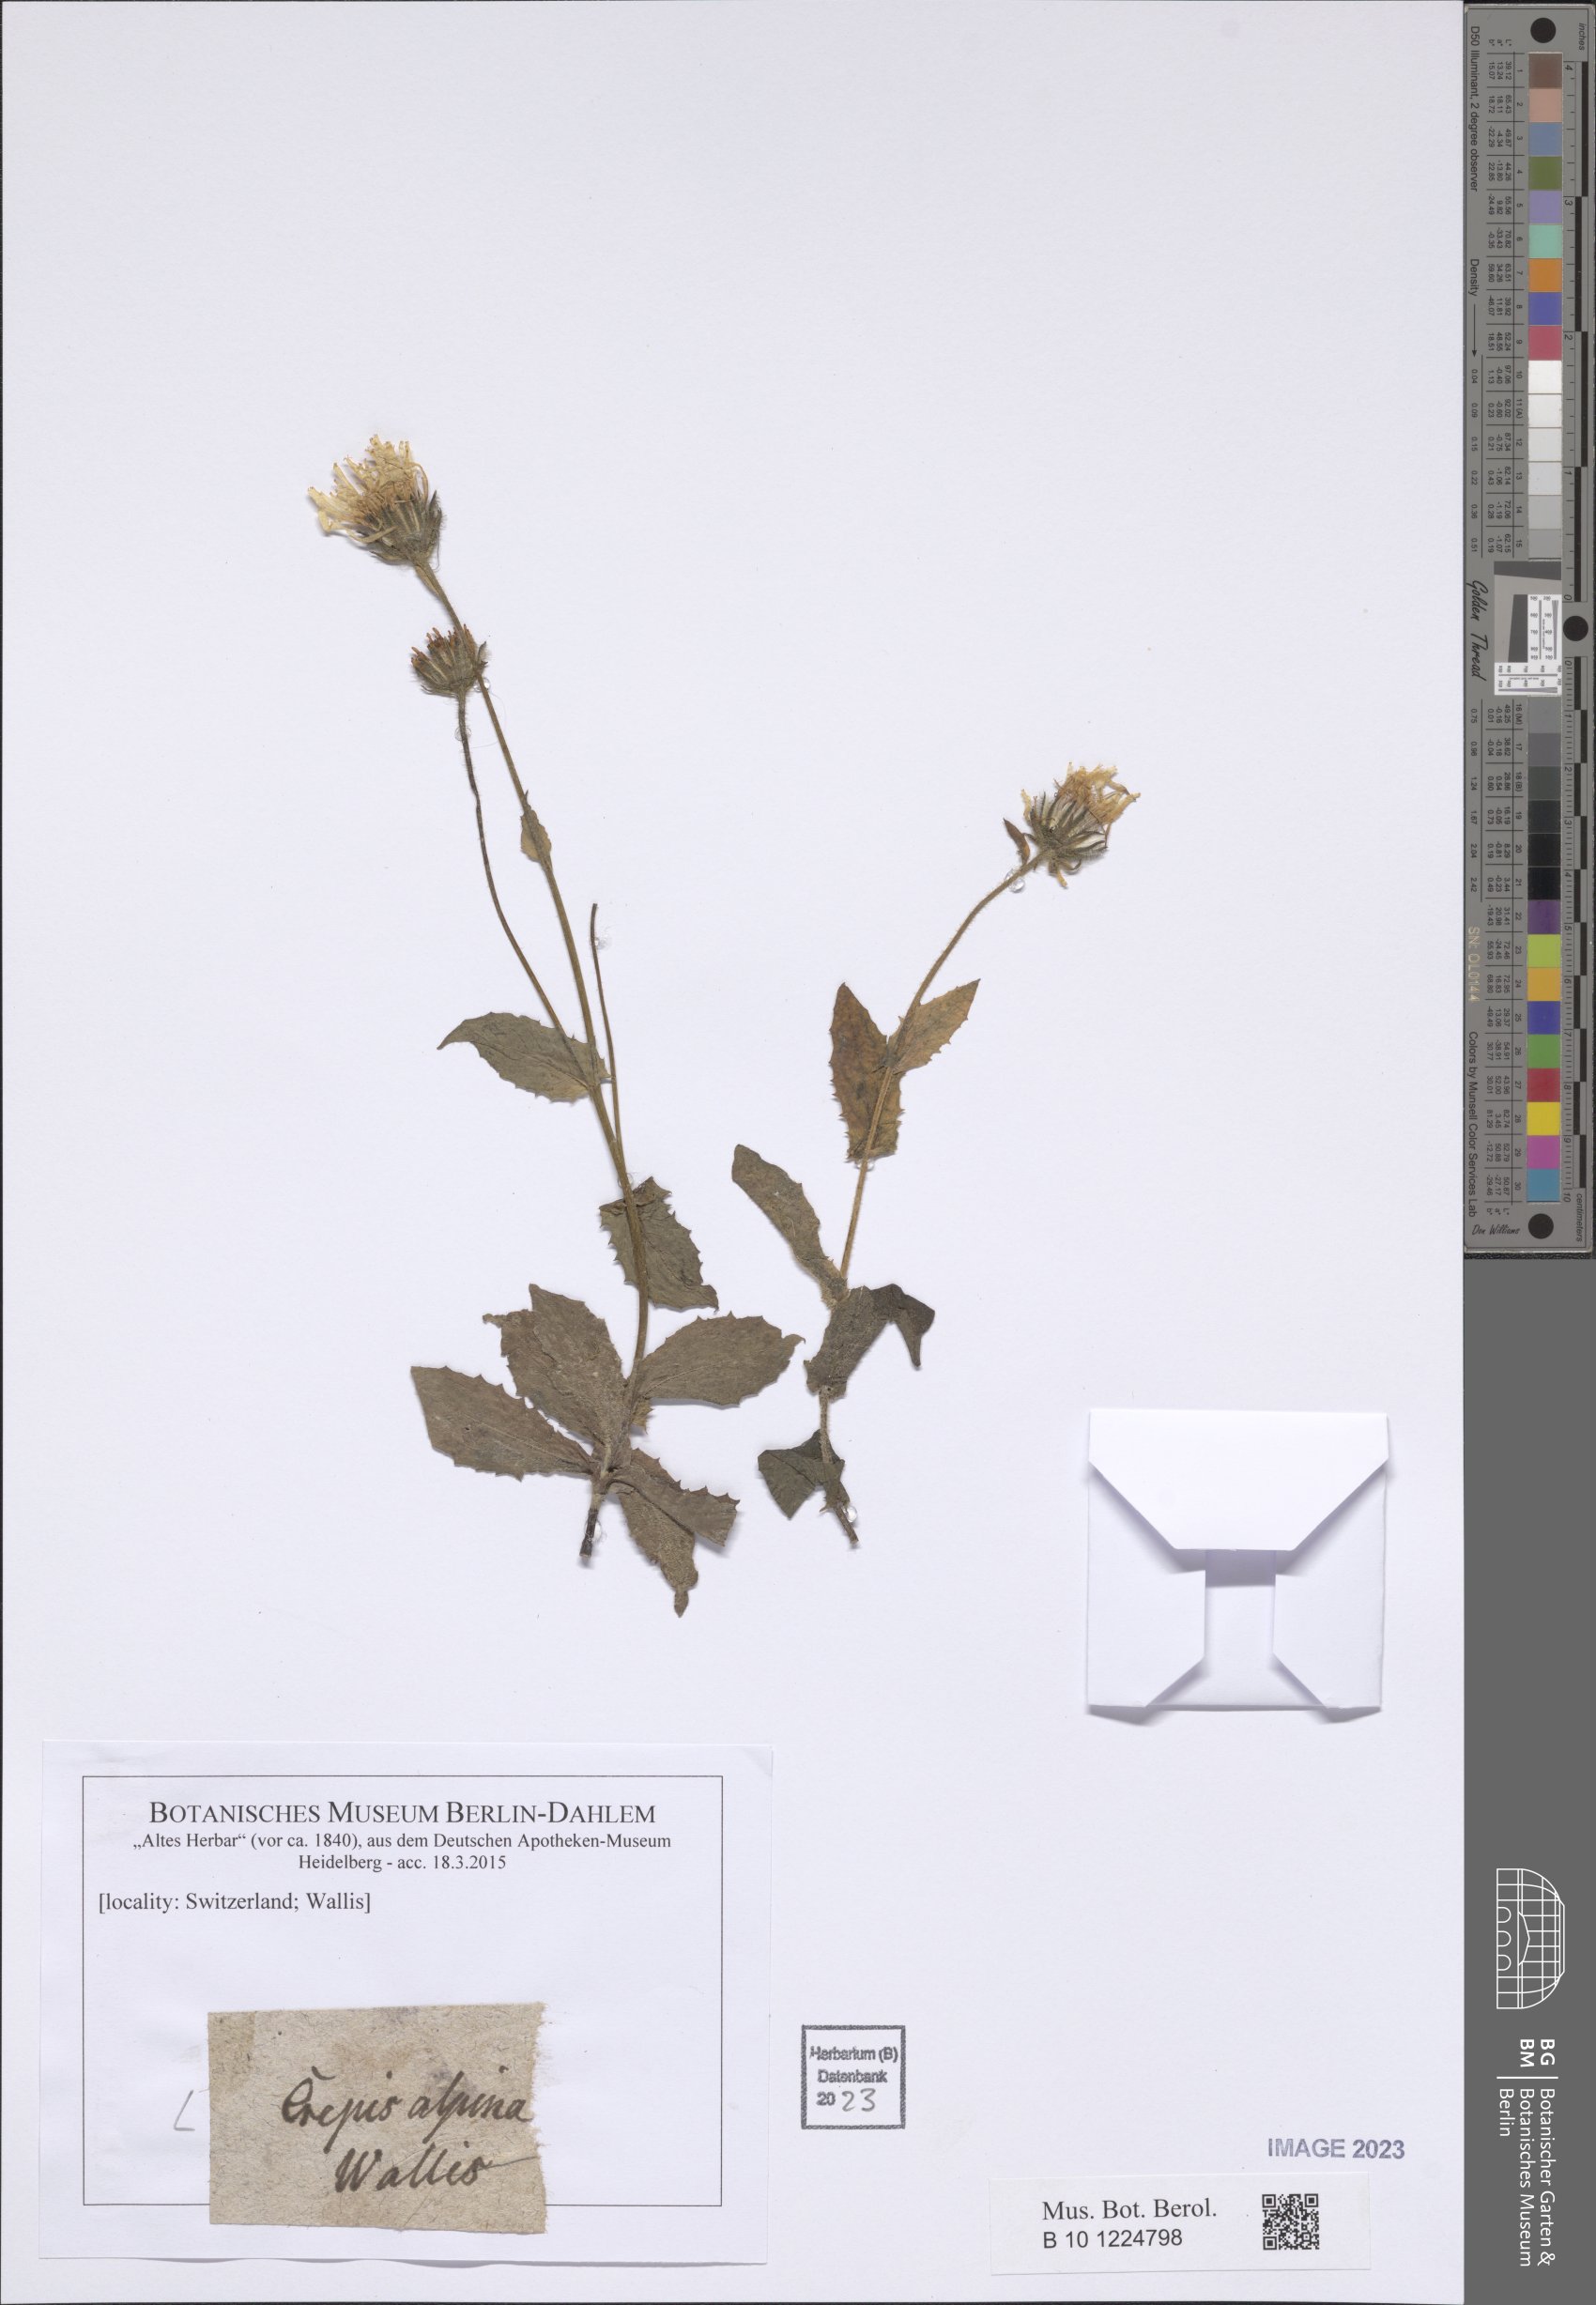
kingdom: Plantae
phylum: Tracheophyta
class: Magnoliopsida
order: Asterales
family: Asteraceae
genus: Crepis
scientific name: Crepis alpina
